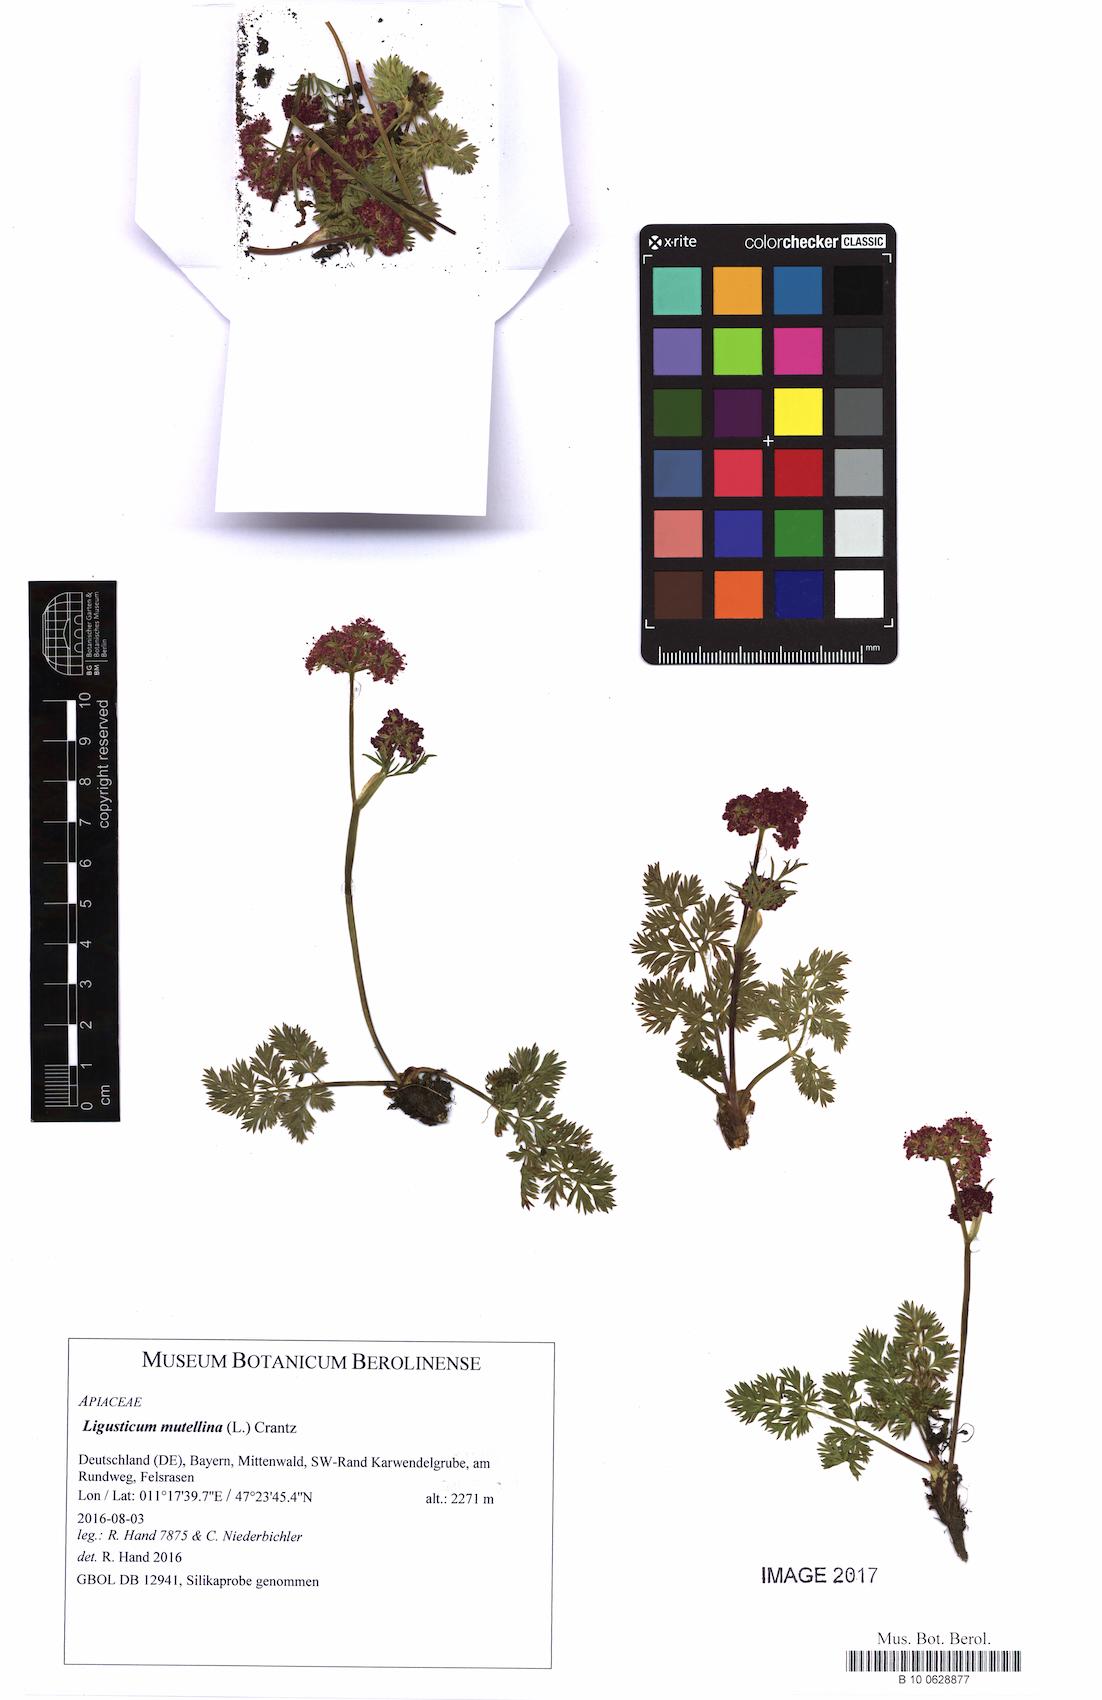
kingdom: Plantae
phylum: Tracheophyta
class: Magnoliopsida
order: Apiales
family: Apiaceae
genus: Mutellina
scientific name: Mutellina adonidifolia
